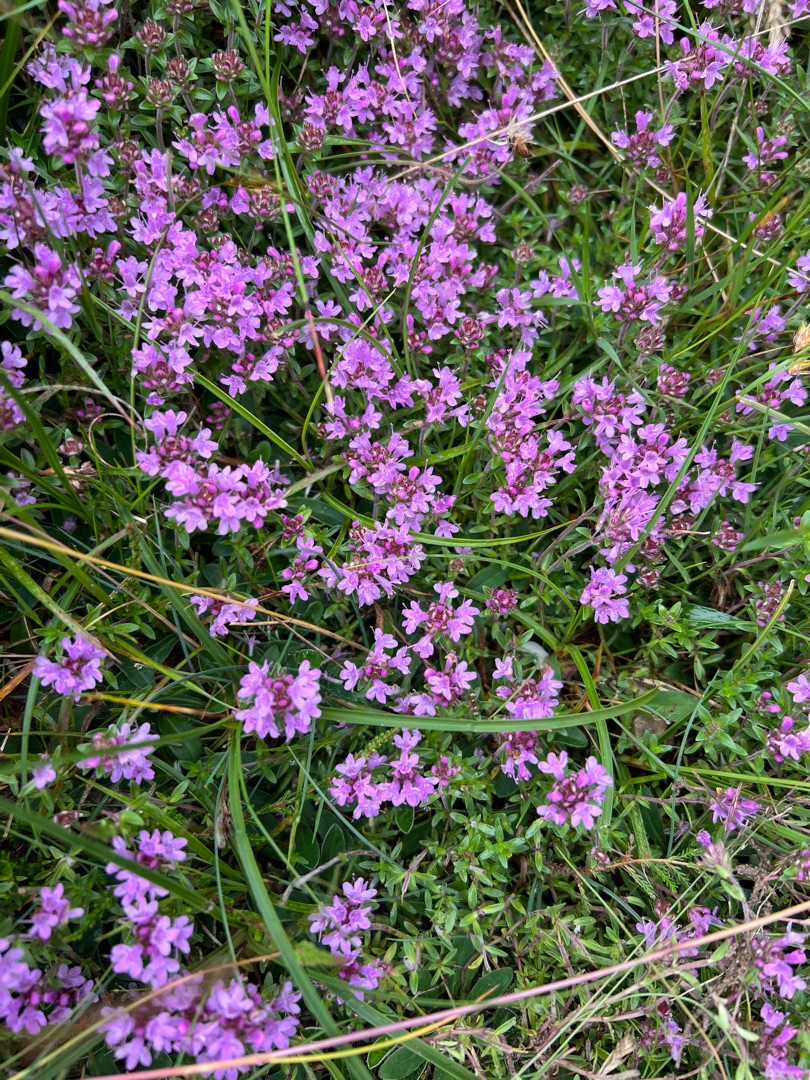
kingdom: Plantae
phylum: Tracheophyta
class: Magnoliopsida
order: Lamiales
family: Lamiaceae
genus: Thymus
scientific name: Thymus
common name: Timianslægten
